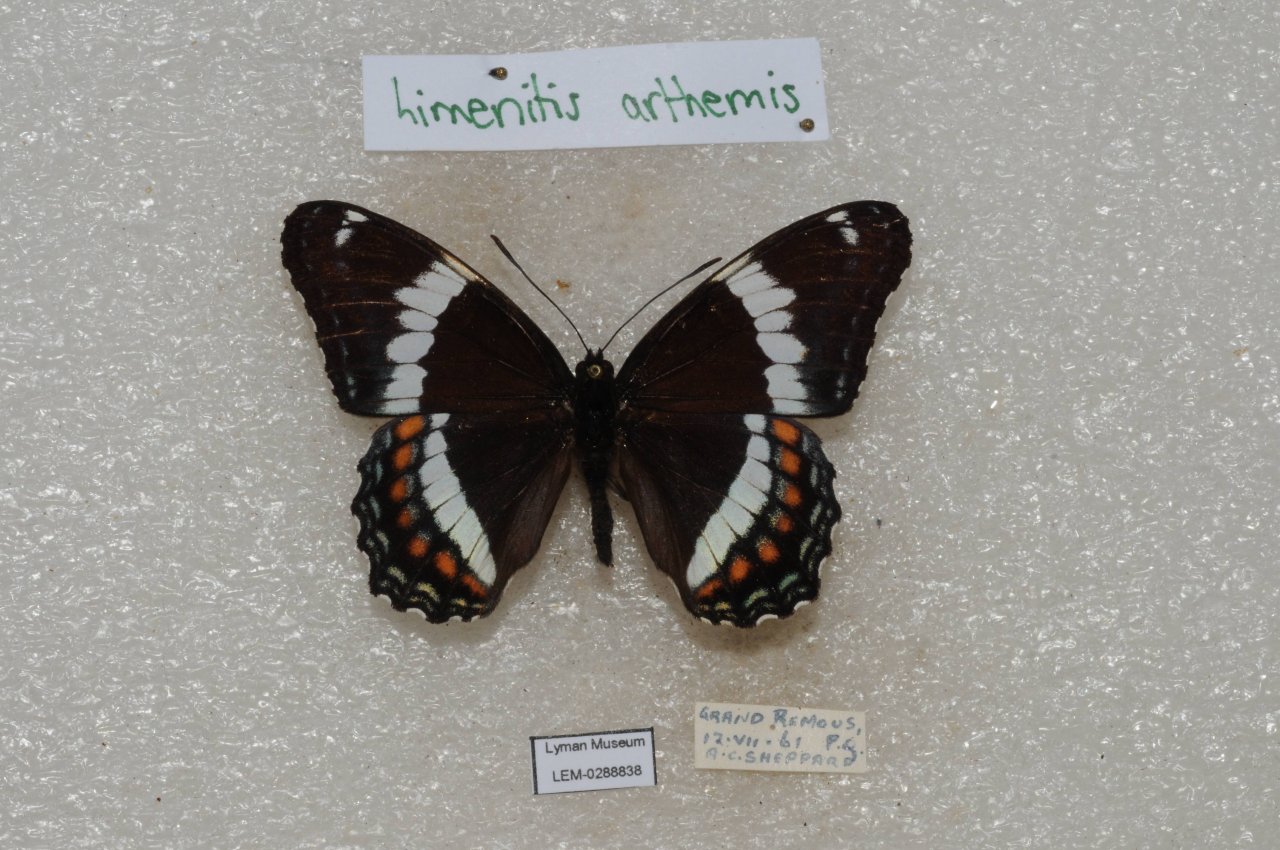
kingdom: Animalia
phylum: Arthropoda
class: Insecta
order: Lepidoptera
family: Nymphalidae
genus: Limenitis
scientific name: Limenitis arthemis
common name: Red-spotted Admiral
